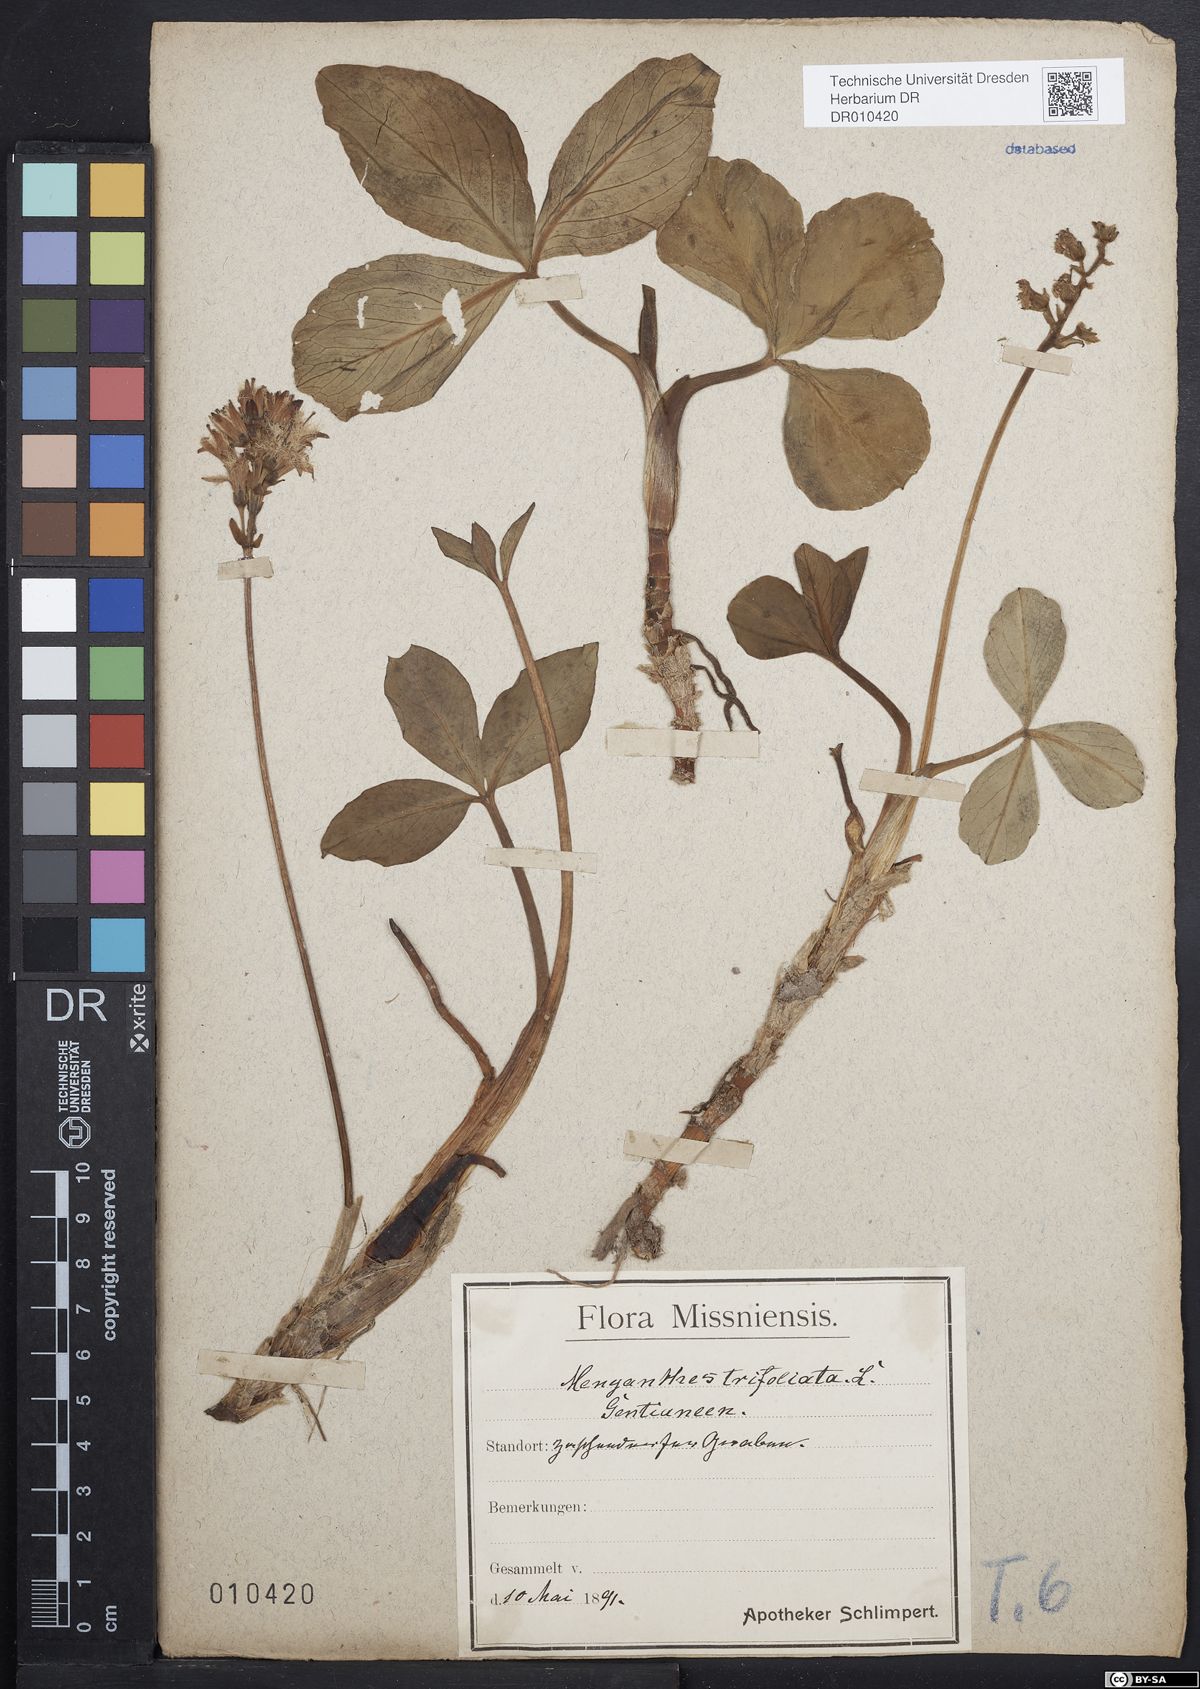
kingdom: Plantae
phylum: Tracheophyta
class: Magnoliopsida
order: Asterales
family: Menyanthaceae
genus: Menyanthes
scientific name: Menyanthes trifoliata
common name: Bogbean
